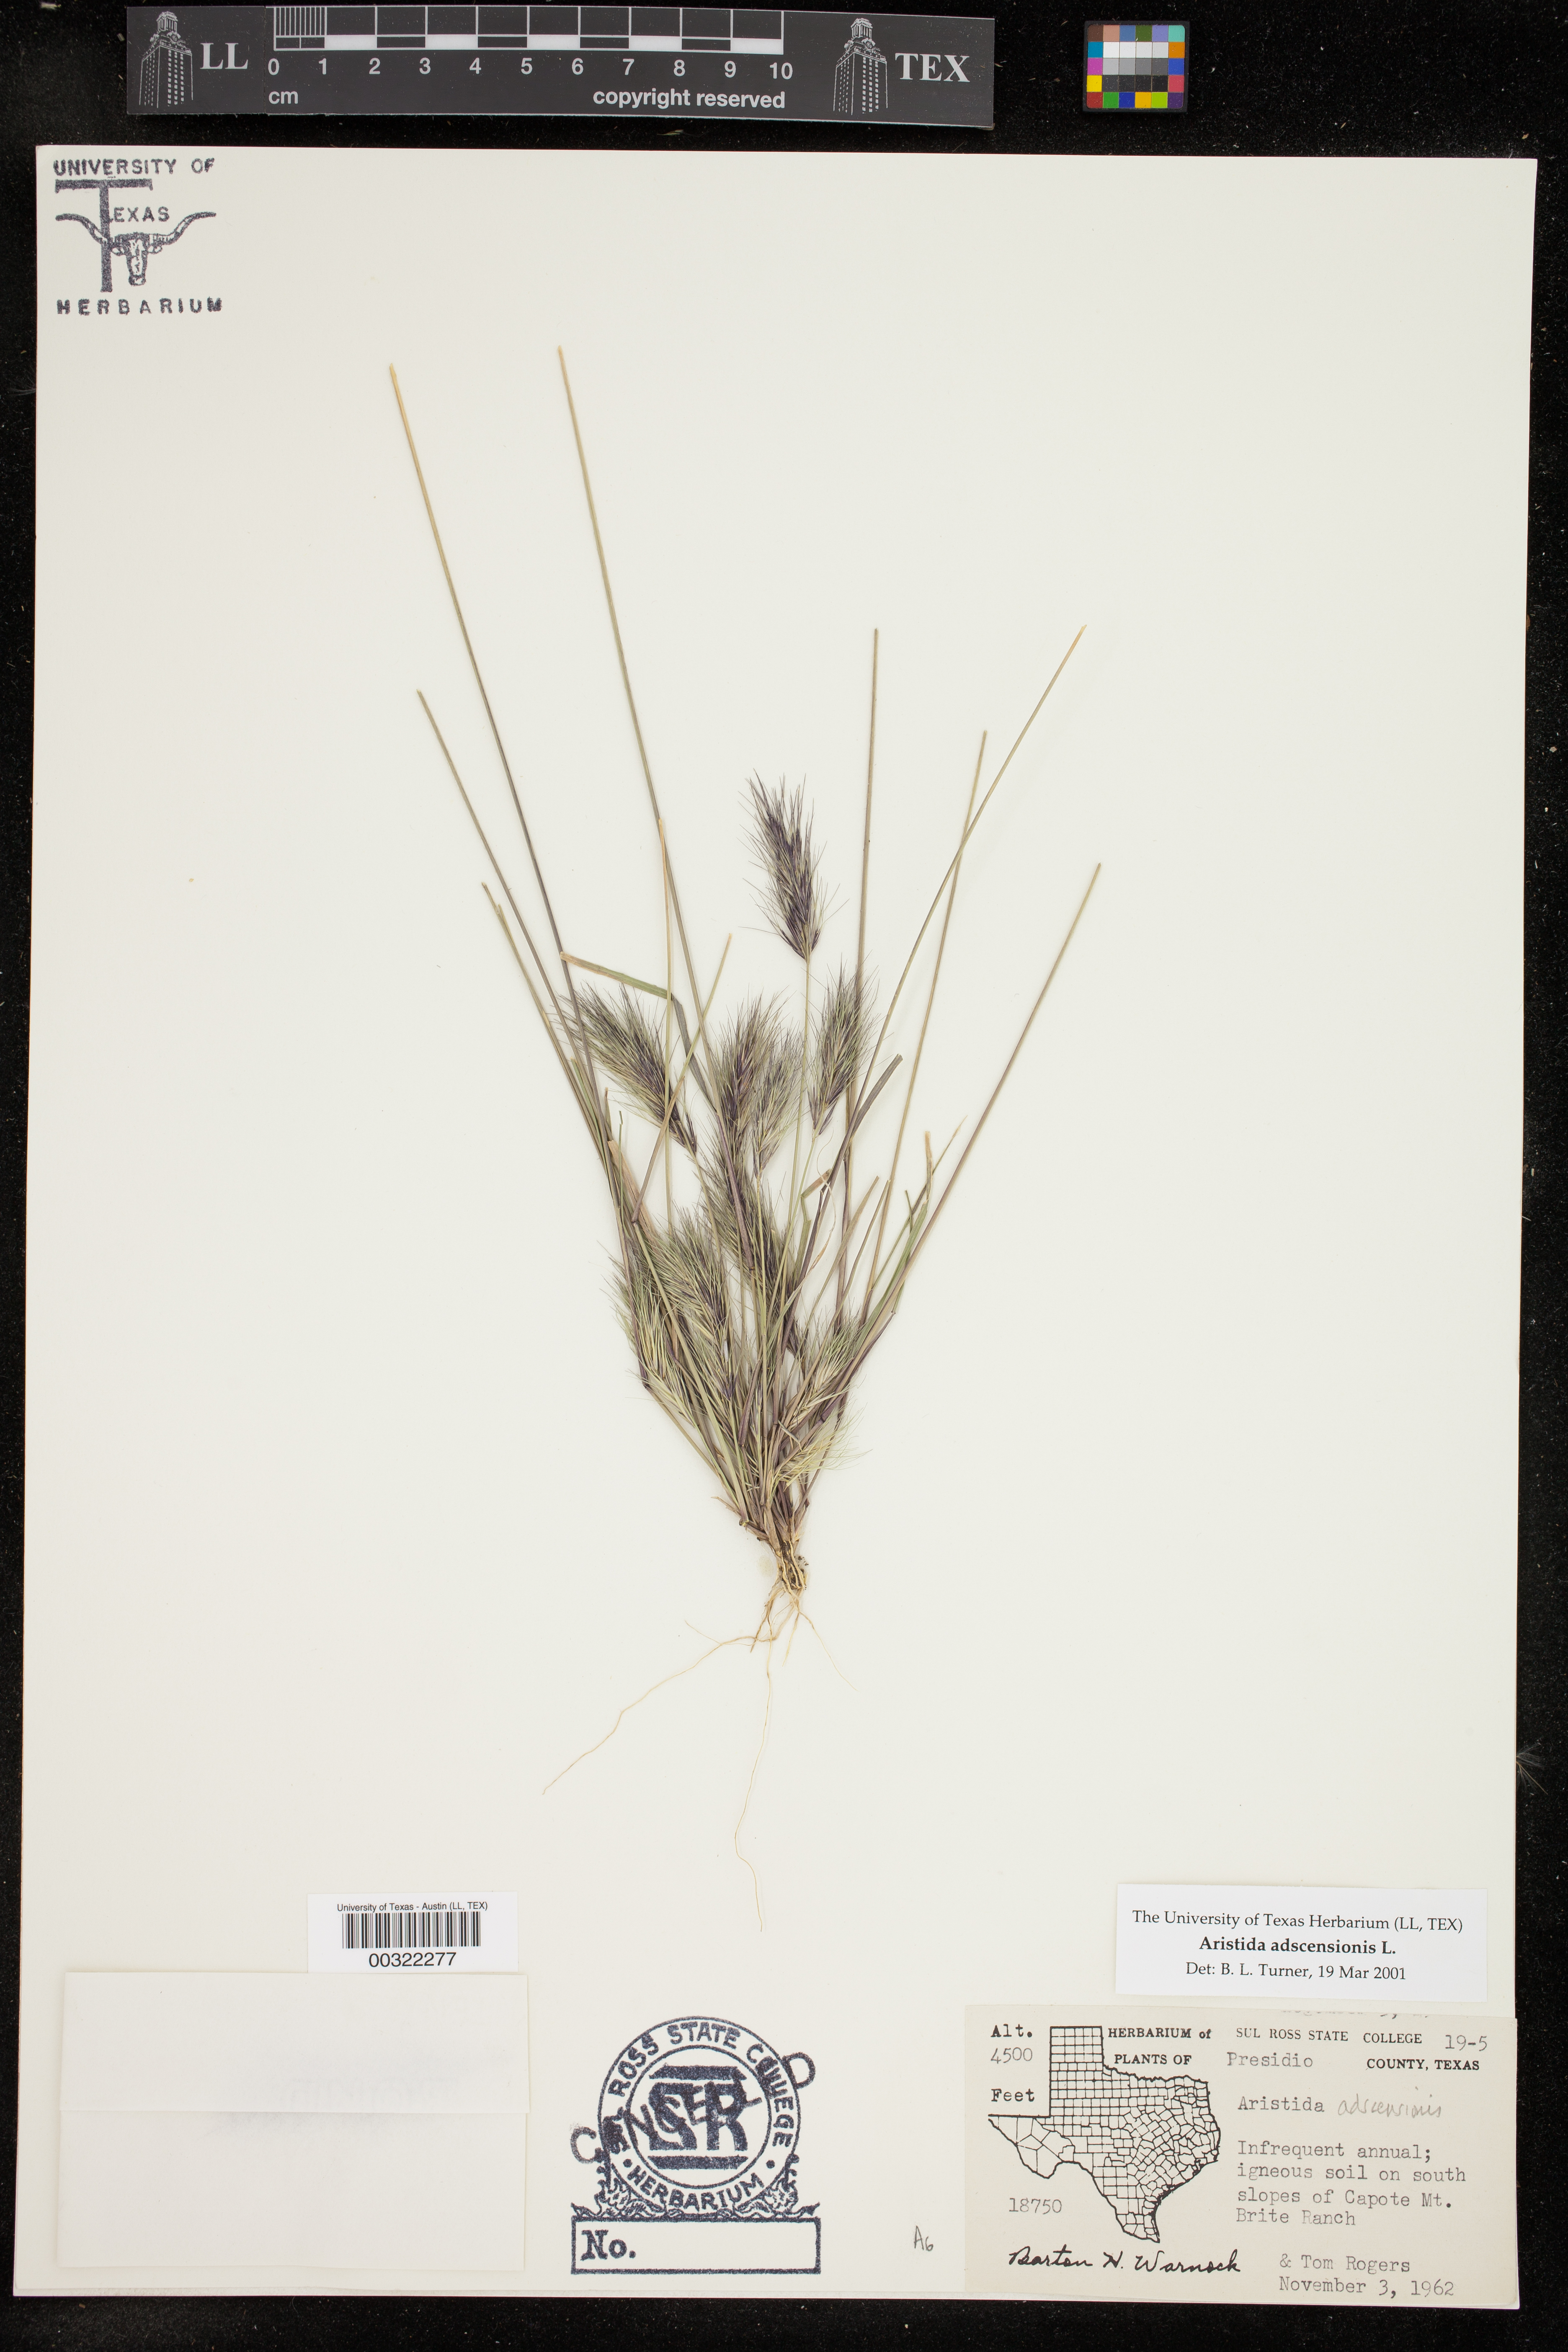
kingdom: Plantae
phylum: Tracheophyta
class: Liliopsida
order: Poales
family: Poaceae
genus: Aristida
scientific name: Aristida adscensionis
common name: Sixweeks threeawn
